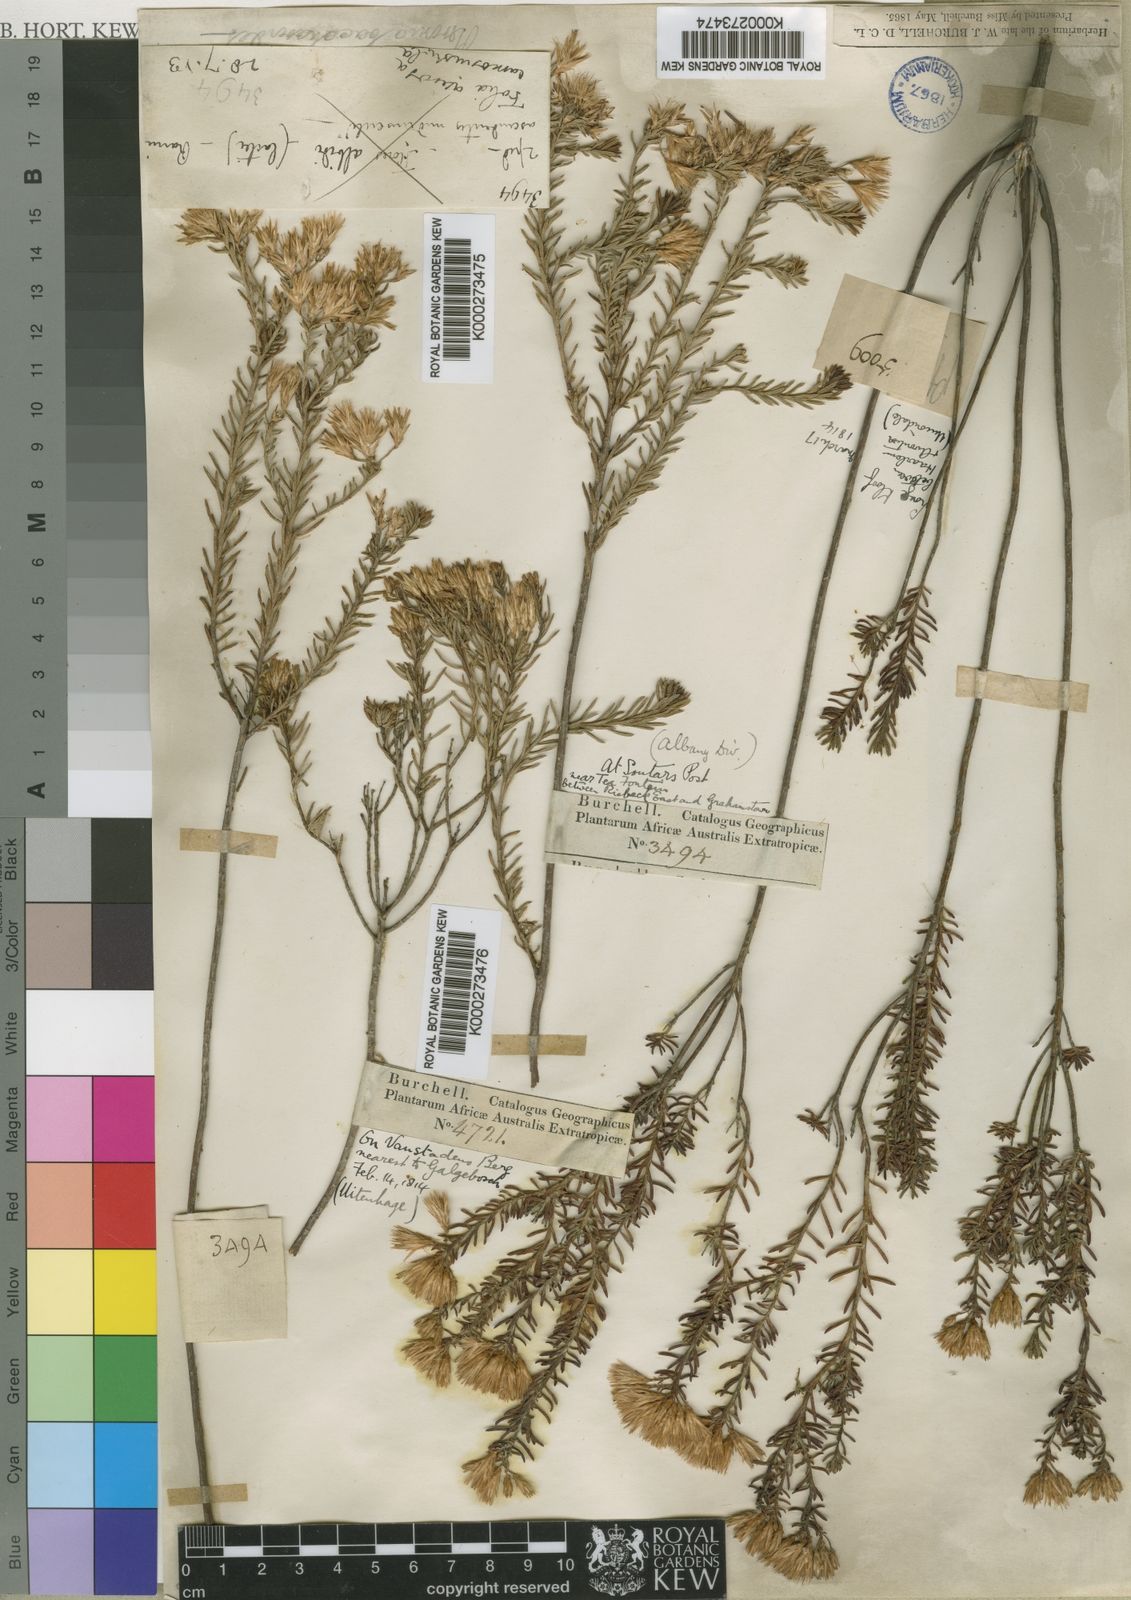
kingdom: Plantae
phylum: Tracheophyta
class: Magnoliopsida
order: Asterales
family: Asteraceae
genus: Pteronia
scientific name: Pteronia teretifolia
